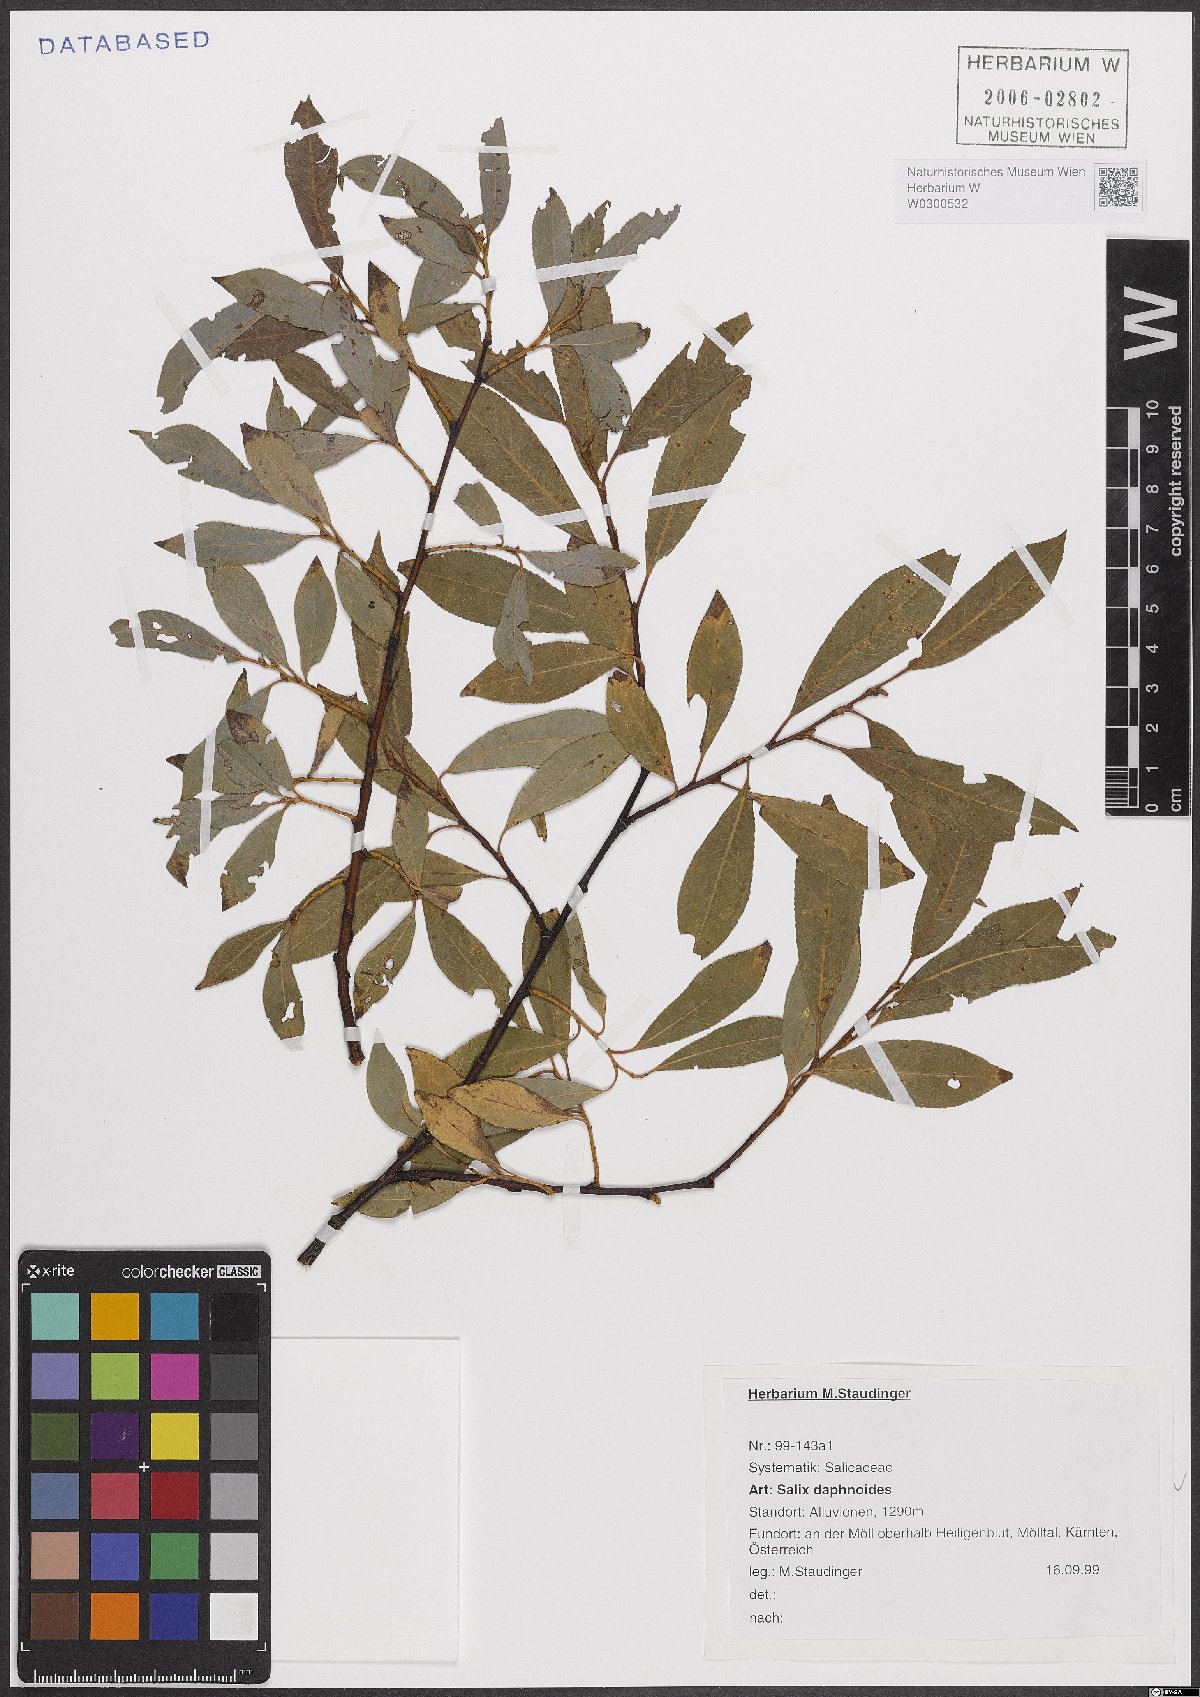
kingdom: Plantae
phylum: Tracheophyta
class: Magnoliopsida
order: Malpighiales
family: Salicaceae
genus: Salix
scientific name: Salix daphnoides
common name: European violet-willow
